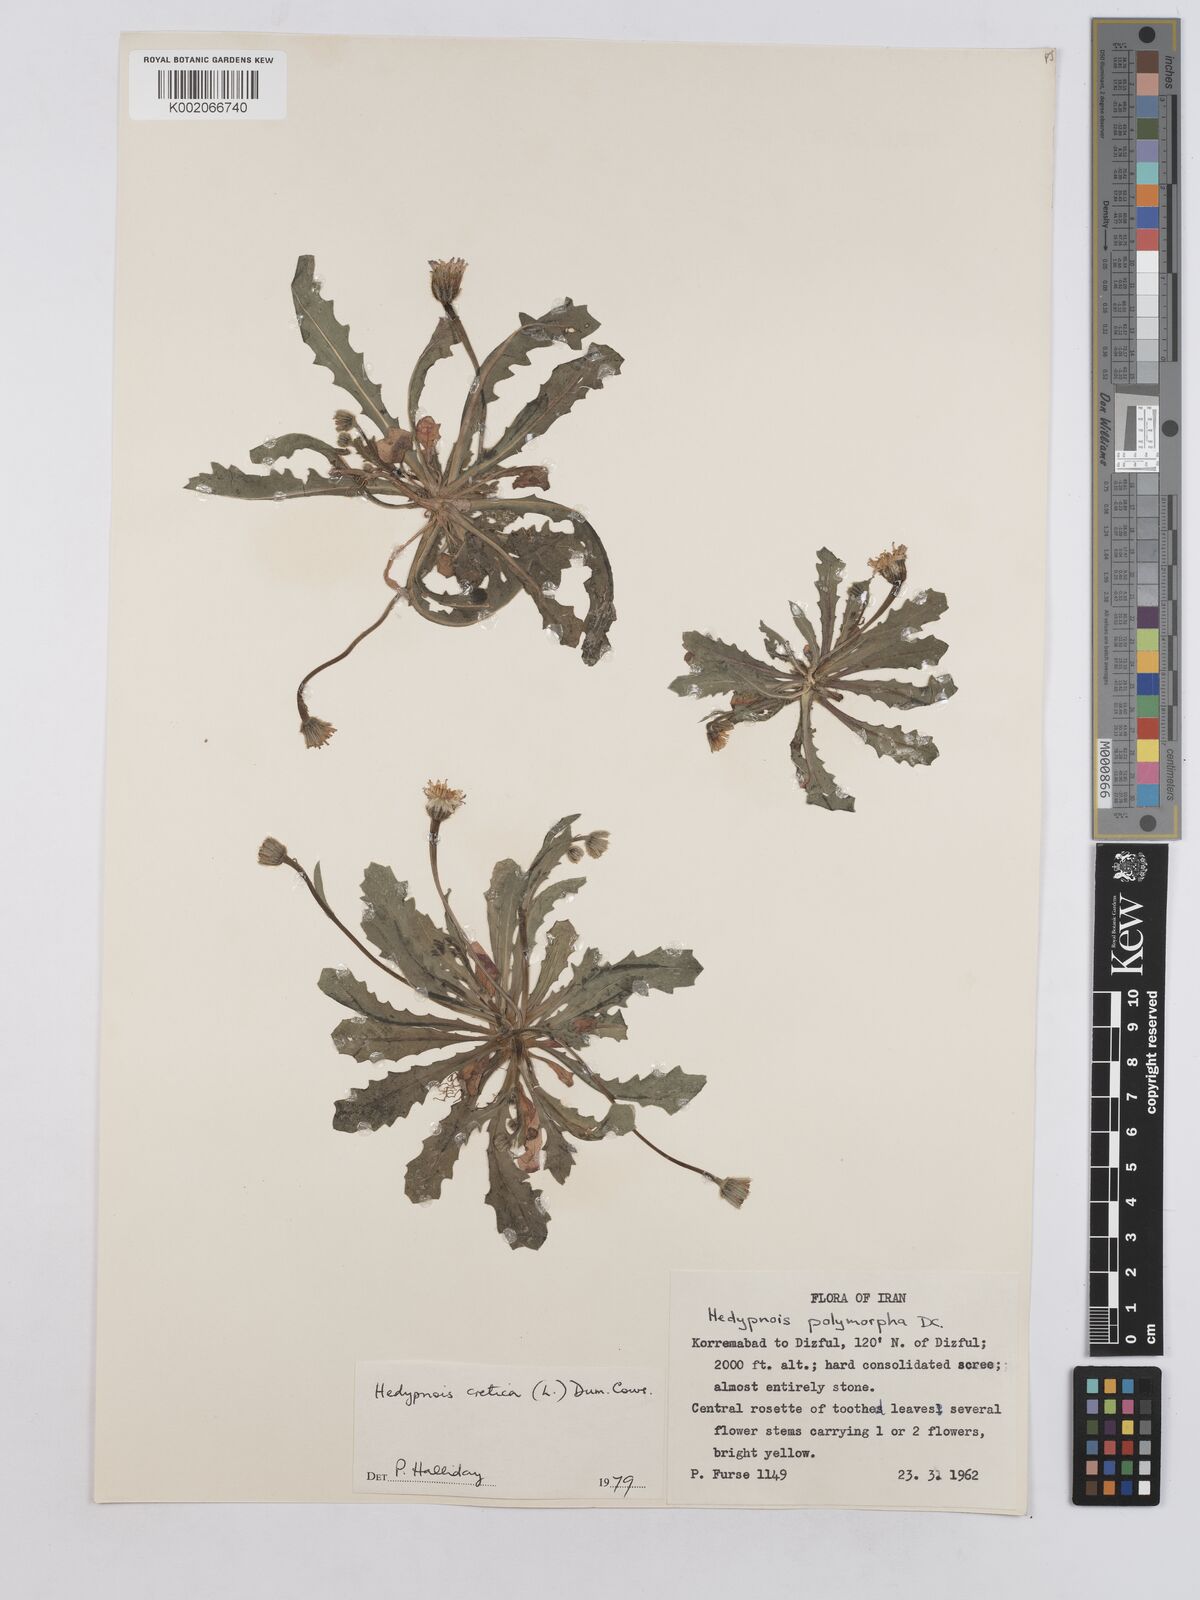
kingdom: Plantae
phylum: Tracheophyta
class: Magnoliopsida
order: Asterales
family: Asteraceae
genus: Hedypnois
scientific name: Hedypnois cretica
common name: Scaly hawkbit
